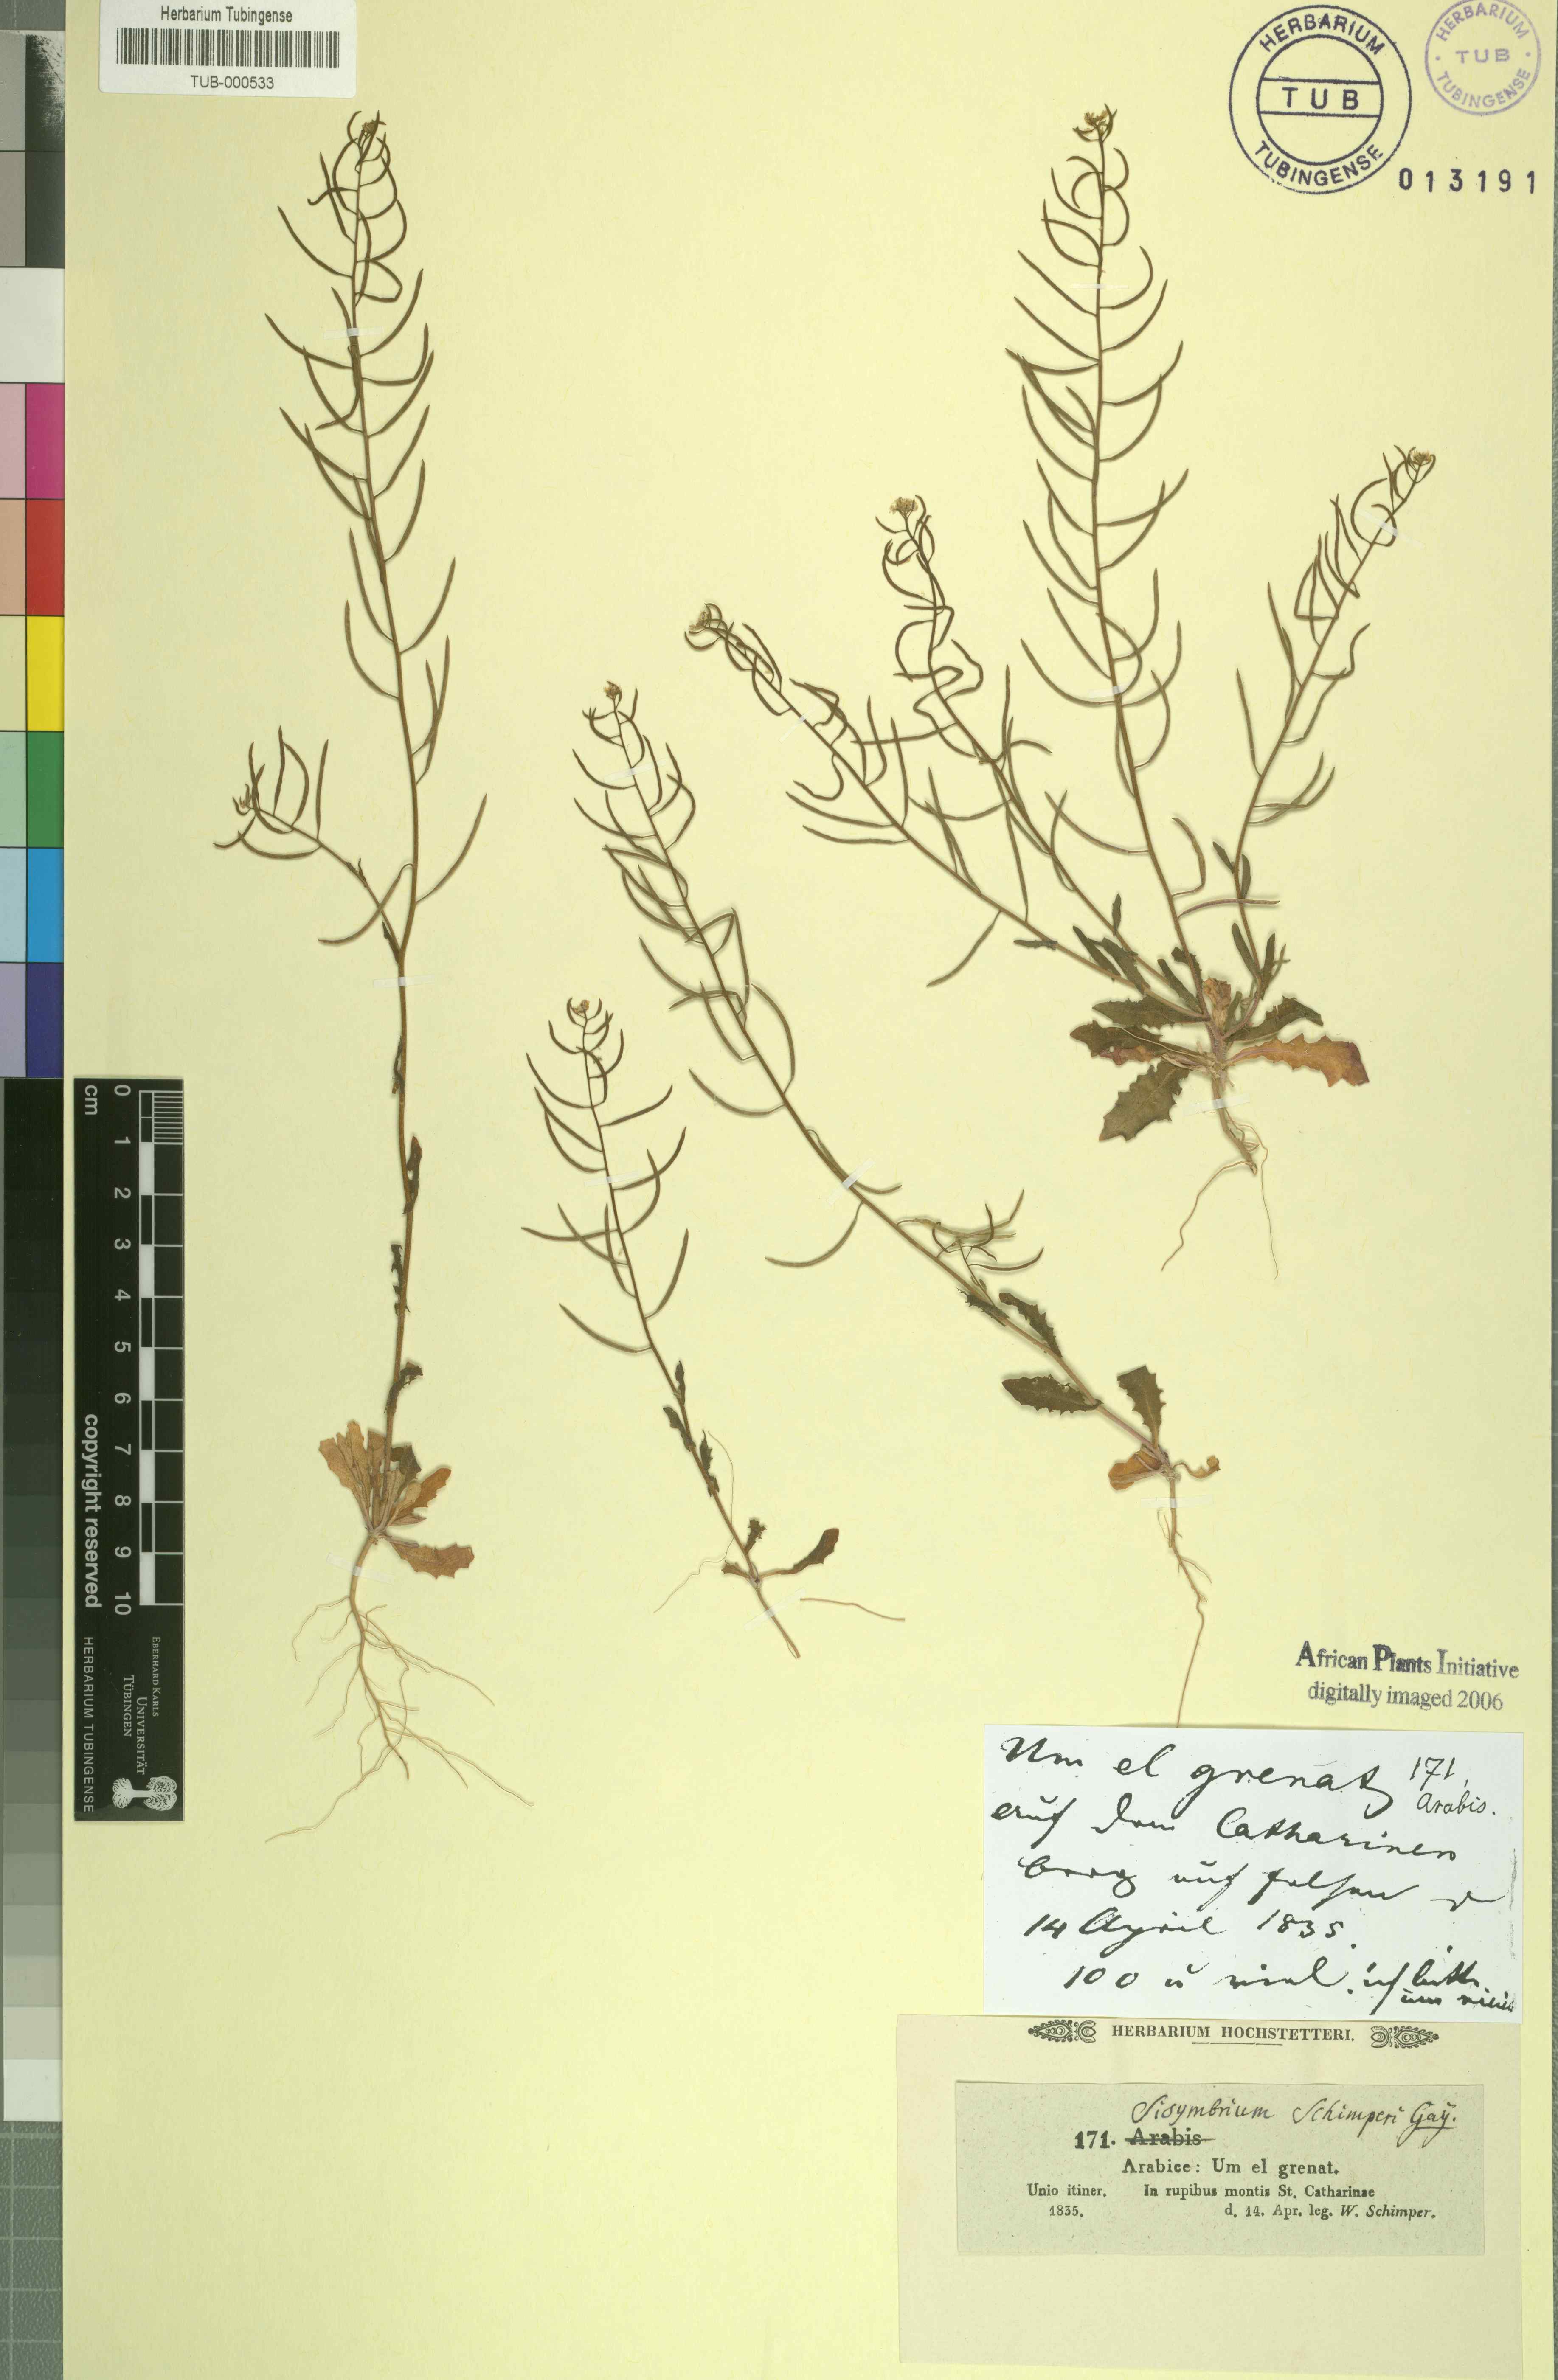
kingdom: Plantae
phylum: Tracheophyta
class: Magnoliopsida
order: Brassicales
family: Brassicaceae
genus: Sisymbrium
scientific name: Sisymbrium pumilum
